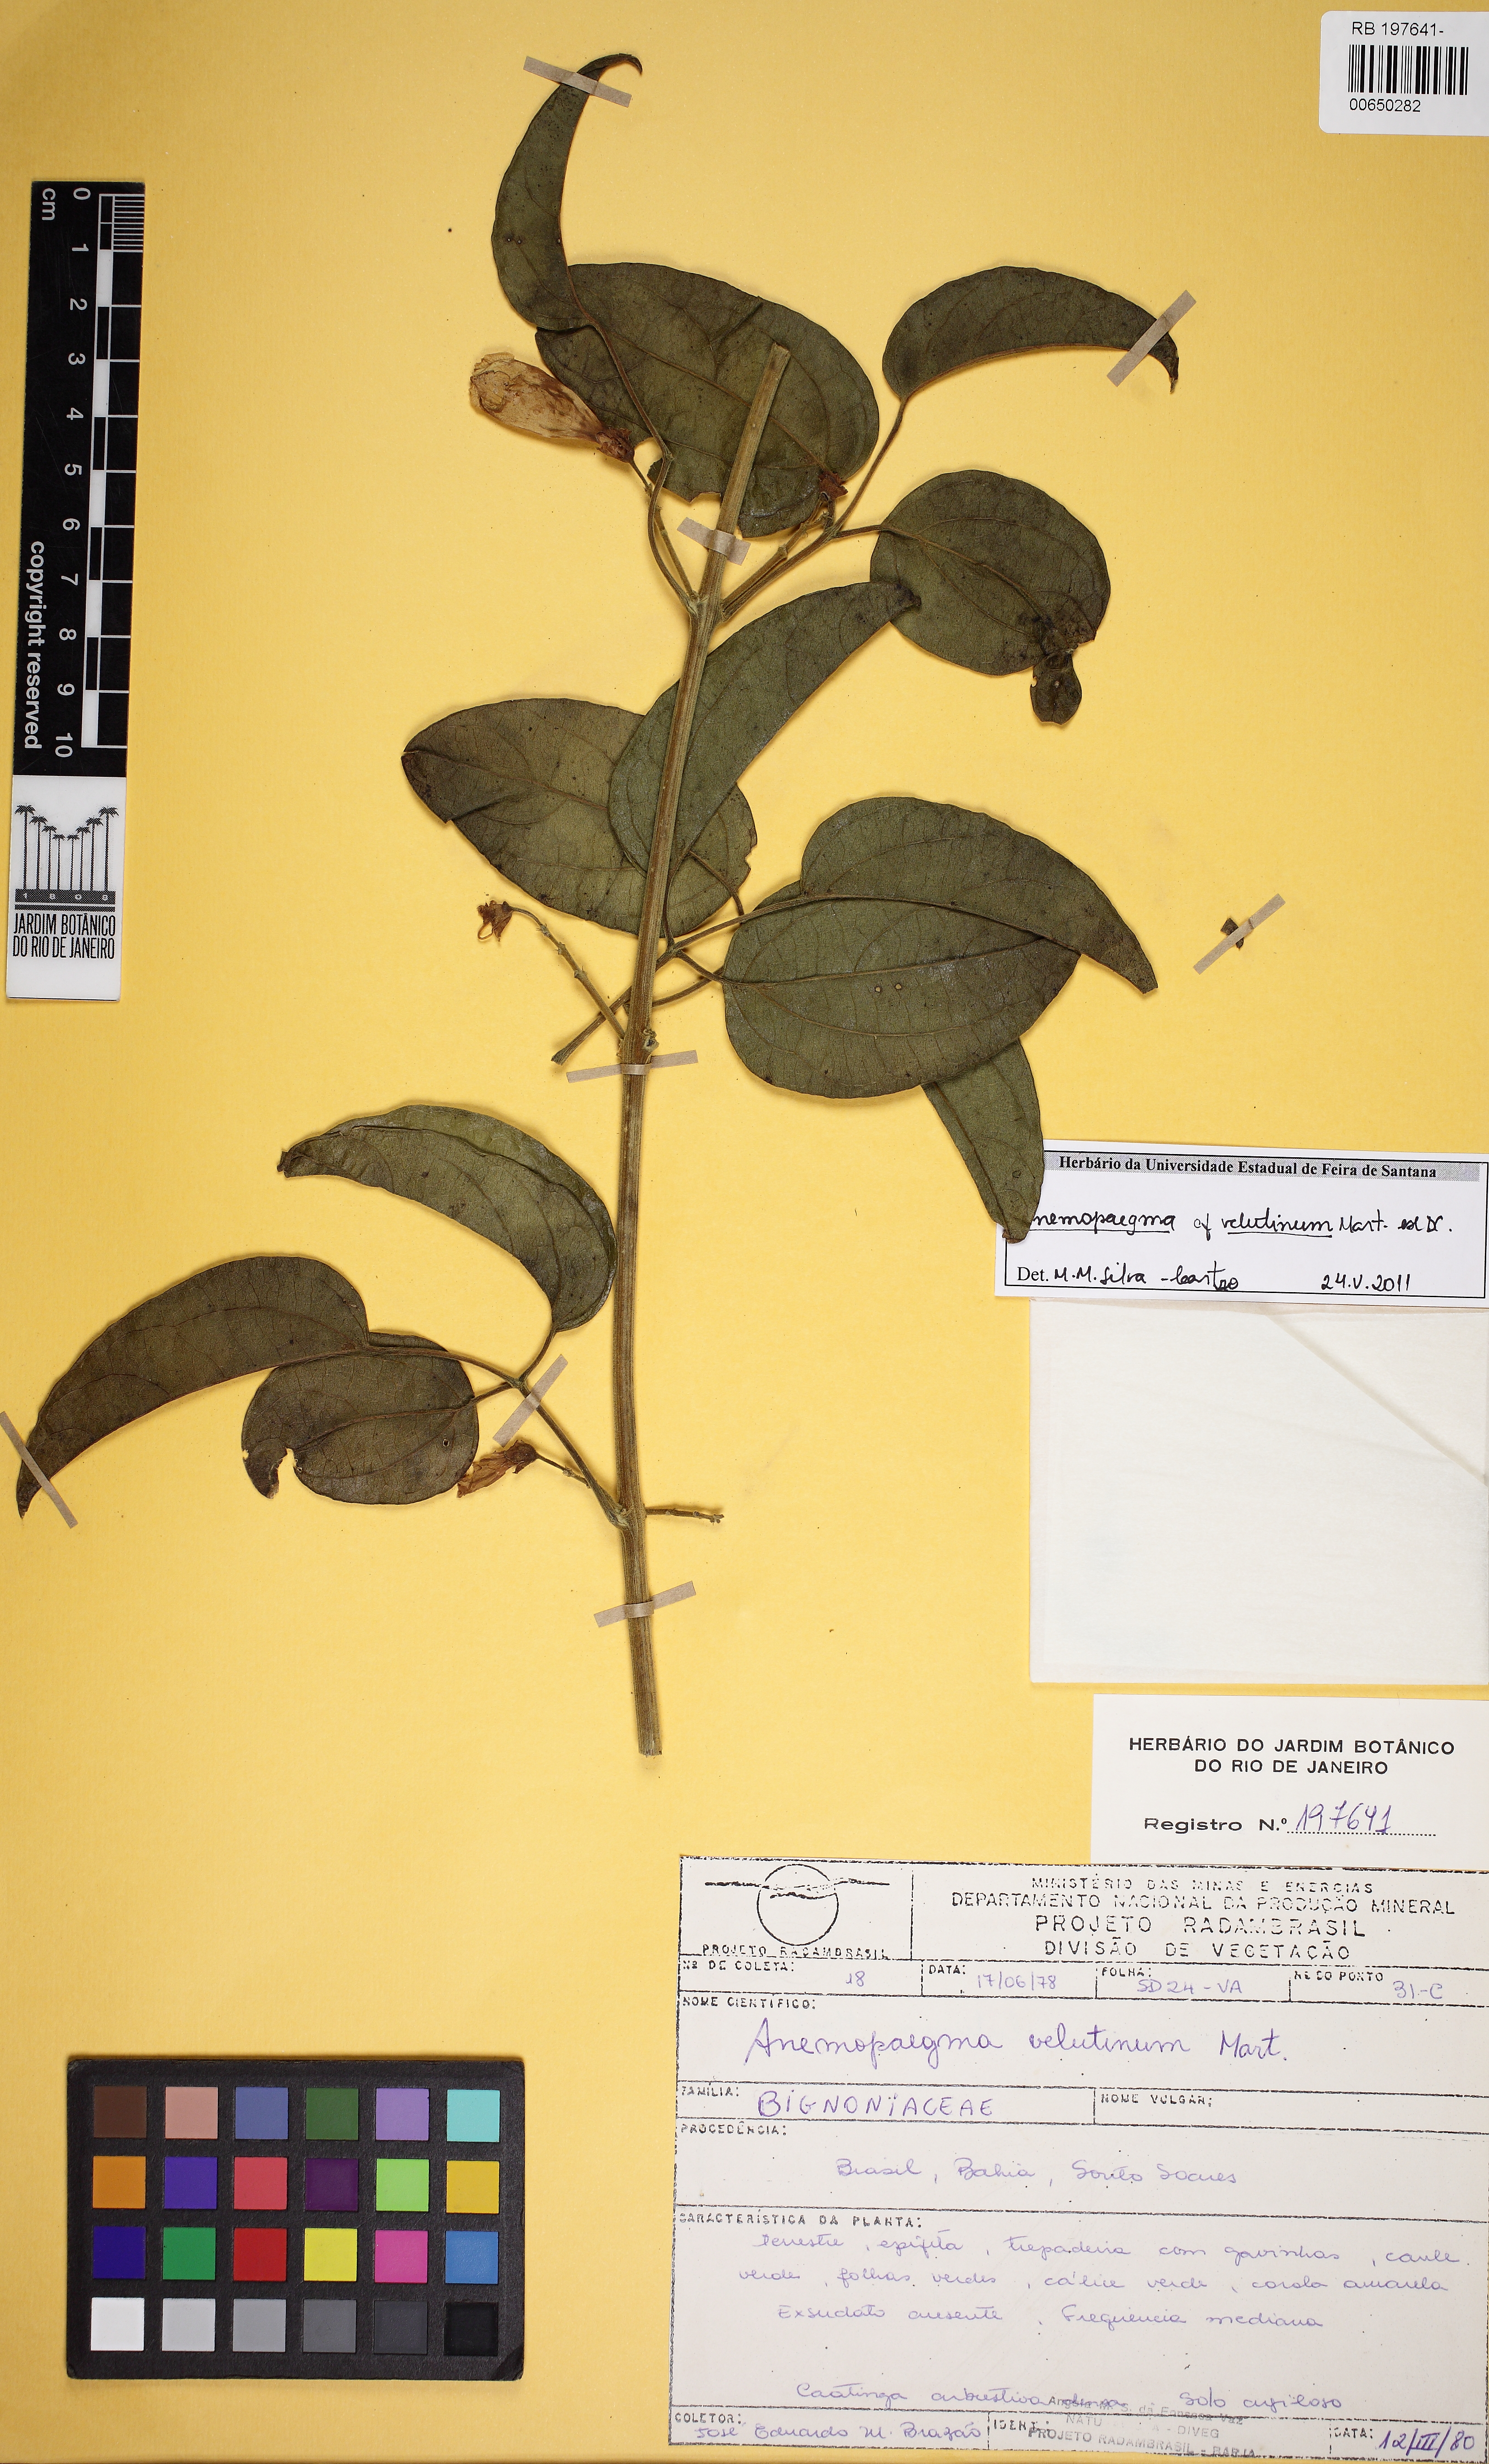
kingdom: Plantae
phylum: Tracheophyta
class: Magnoliopsida
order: Lamiales
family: Bignoniaceae
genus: Anemopaegma
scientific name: Anemopaegma velutinum
